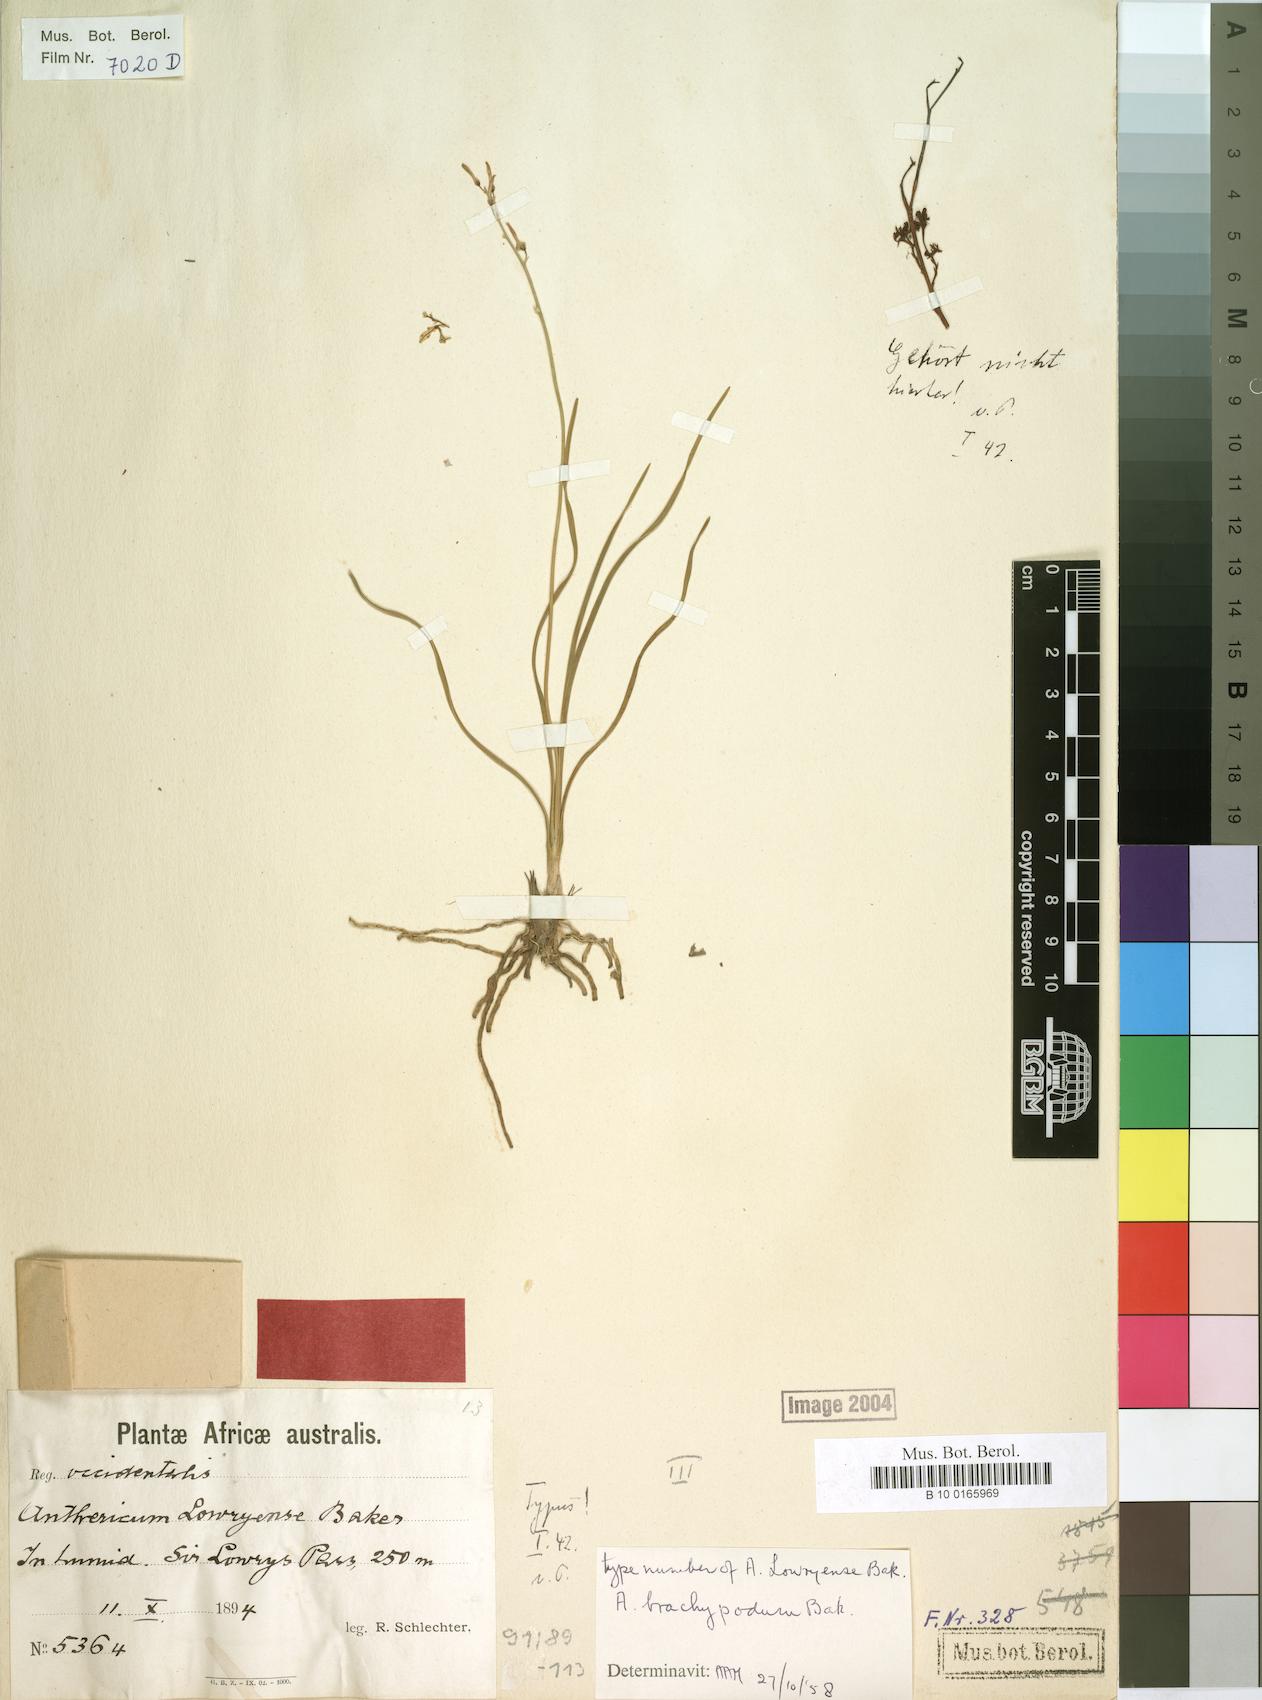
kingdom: Plantae
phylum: Tracheophyta
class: Liliopsida
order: Asparagales
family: Asphodelaceae
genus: Trachyandra
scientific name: Trachyandra brachypoda
